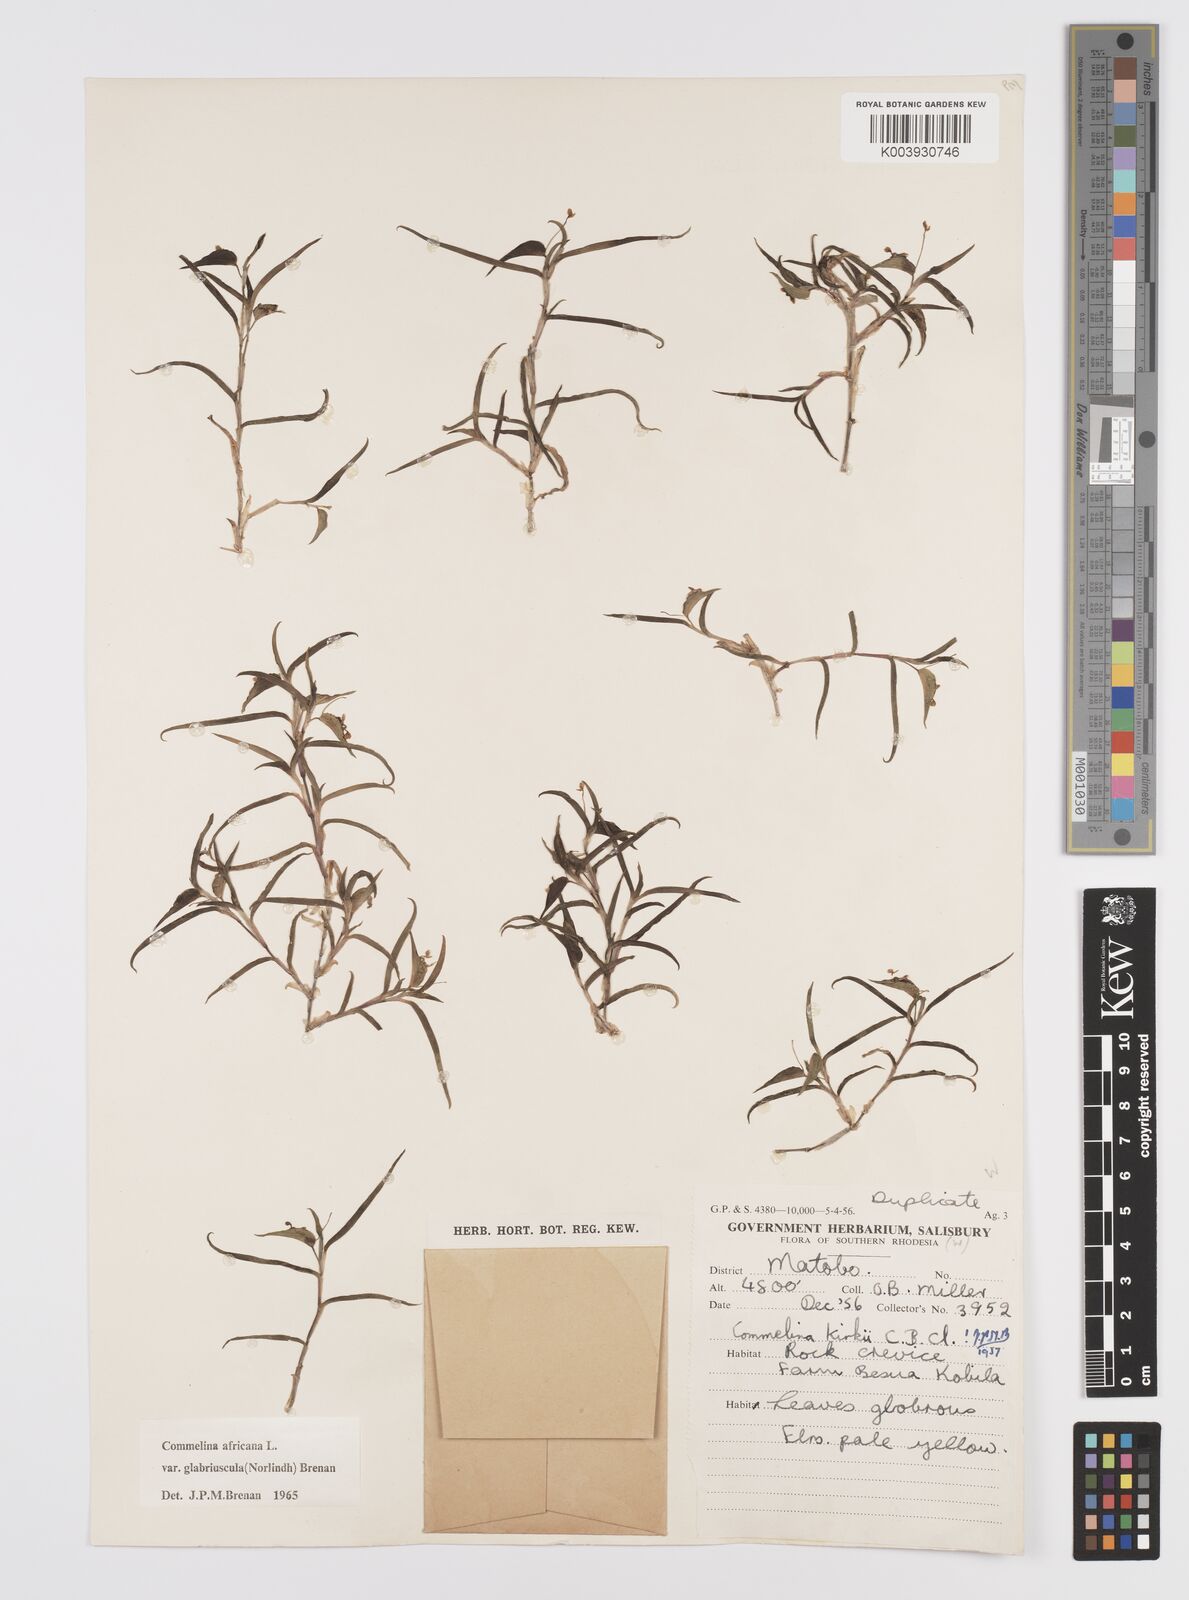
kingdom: Plantae
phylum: Tracheophyta
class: Liliopsida
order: Commelinales
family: Commelinaceae
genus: Commelina
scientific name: Commelina africana
